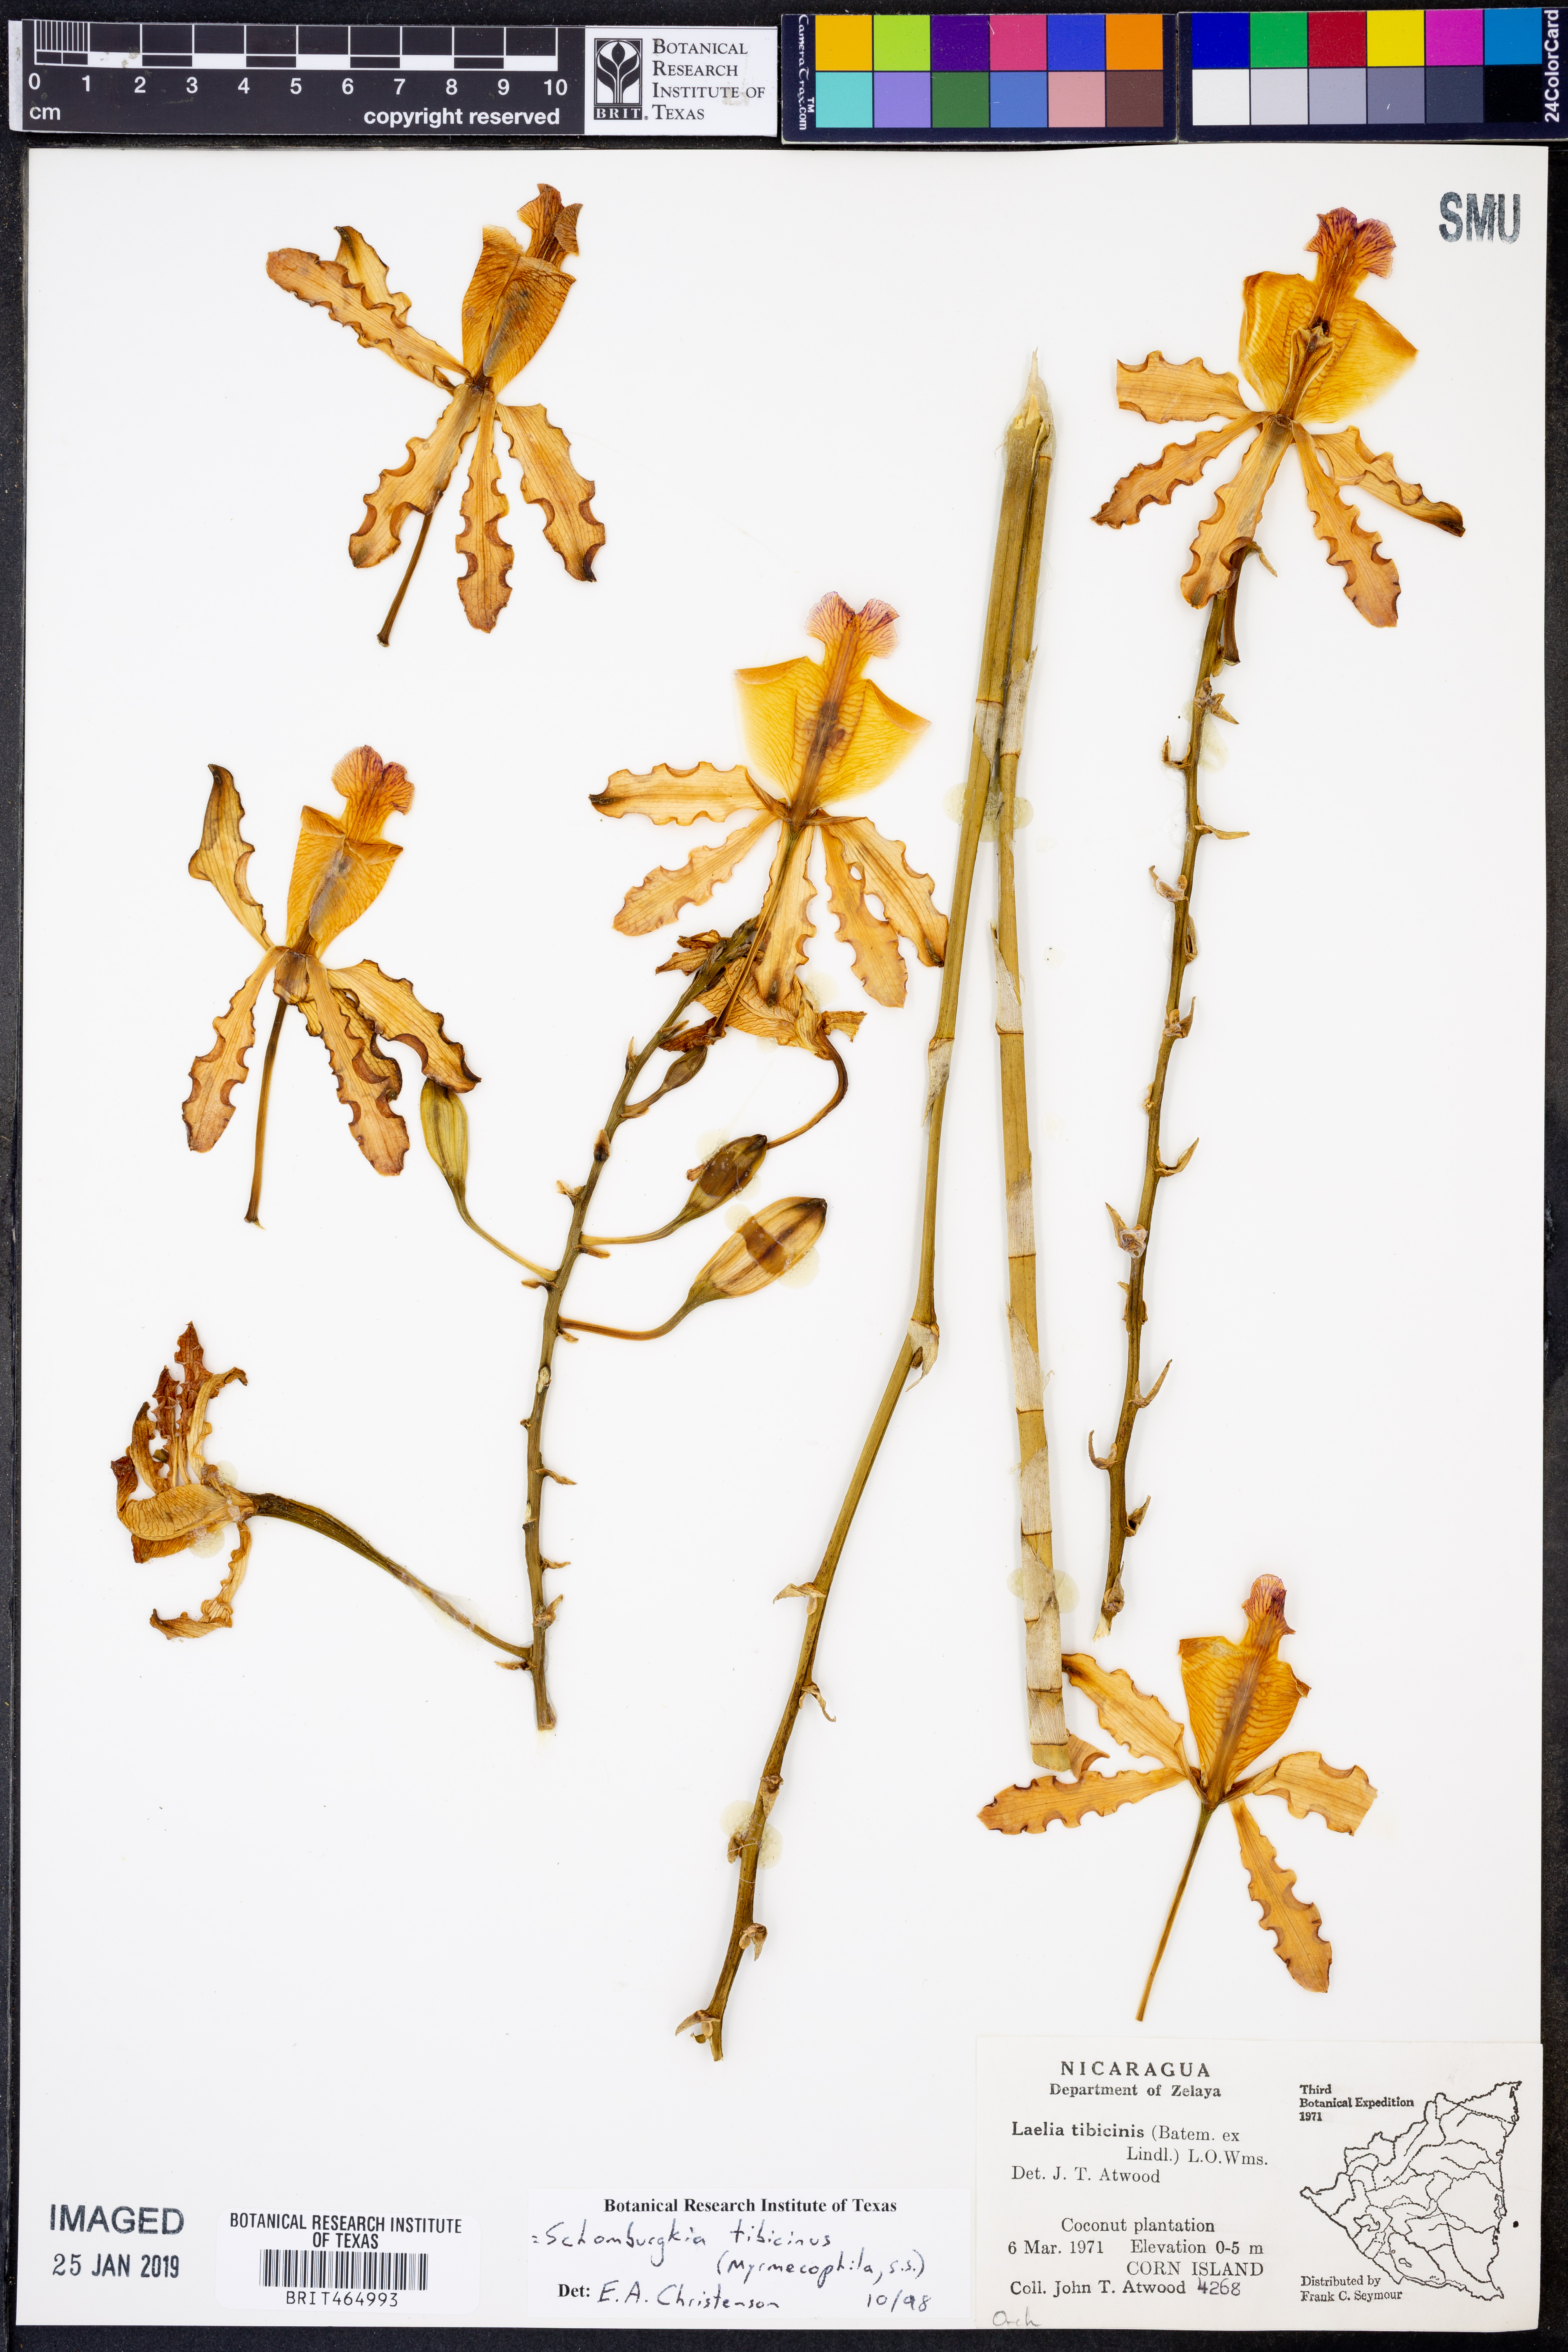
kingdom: Plantae
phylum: Tracheophyta
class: Liliopsida
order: Asparagales
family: Orchidaceae
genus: Myrmecophila
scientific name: Myrmecophila tibicinis
